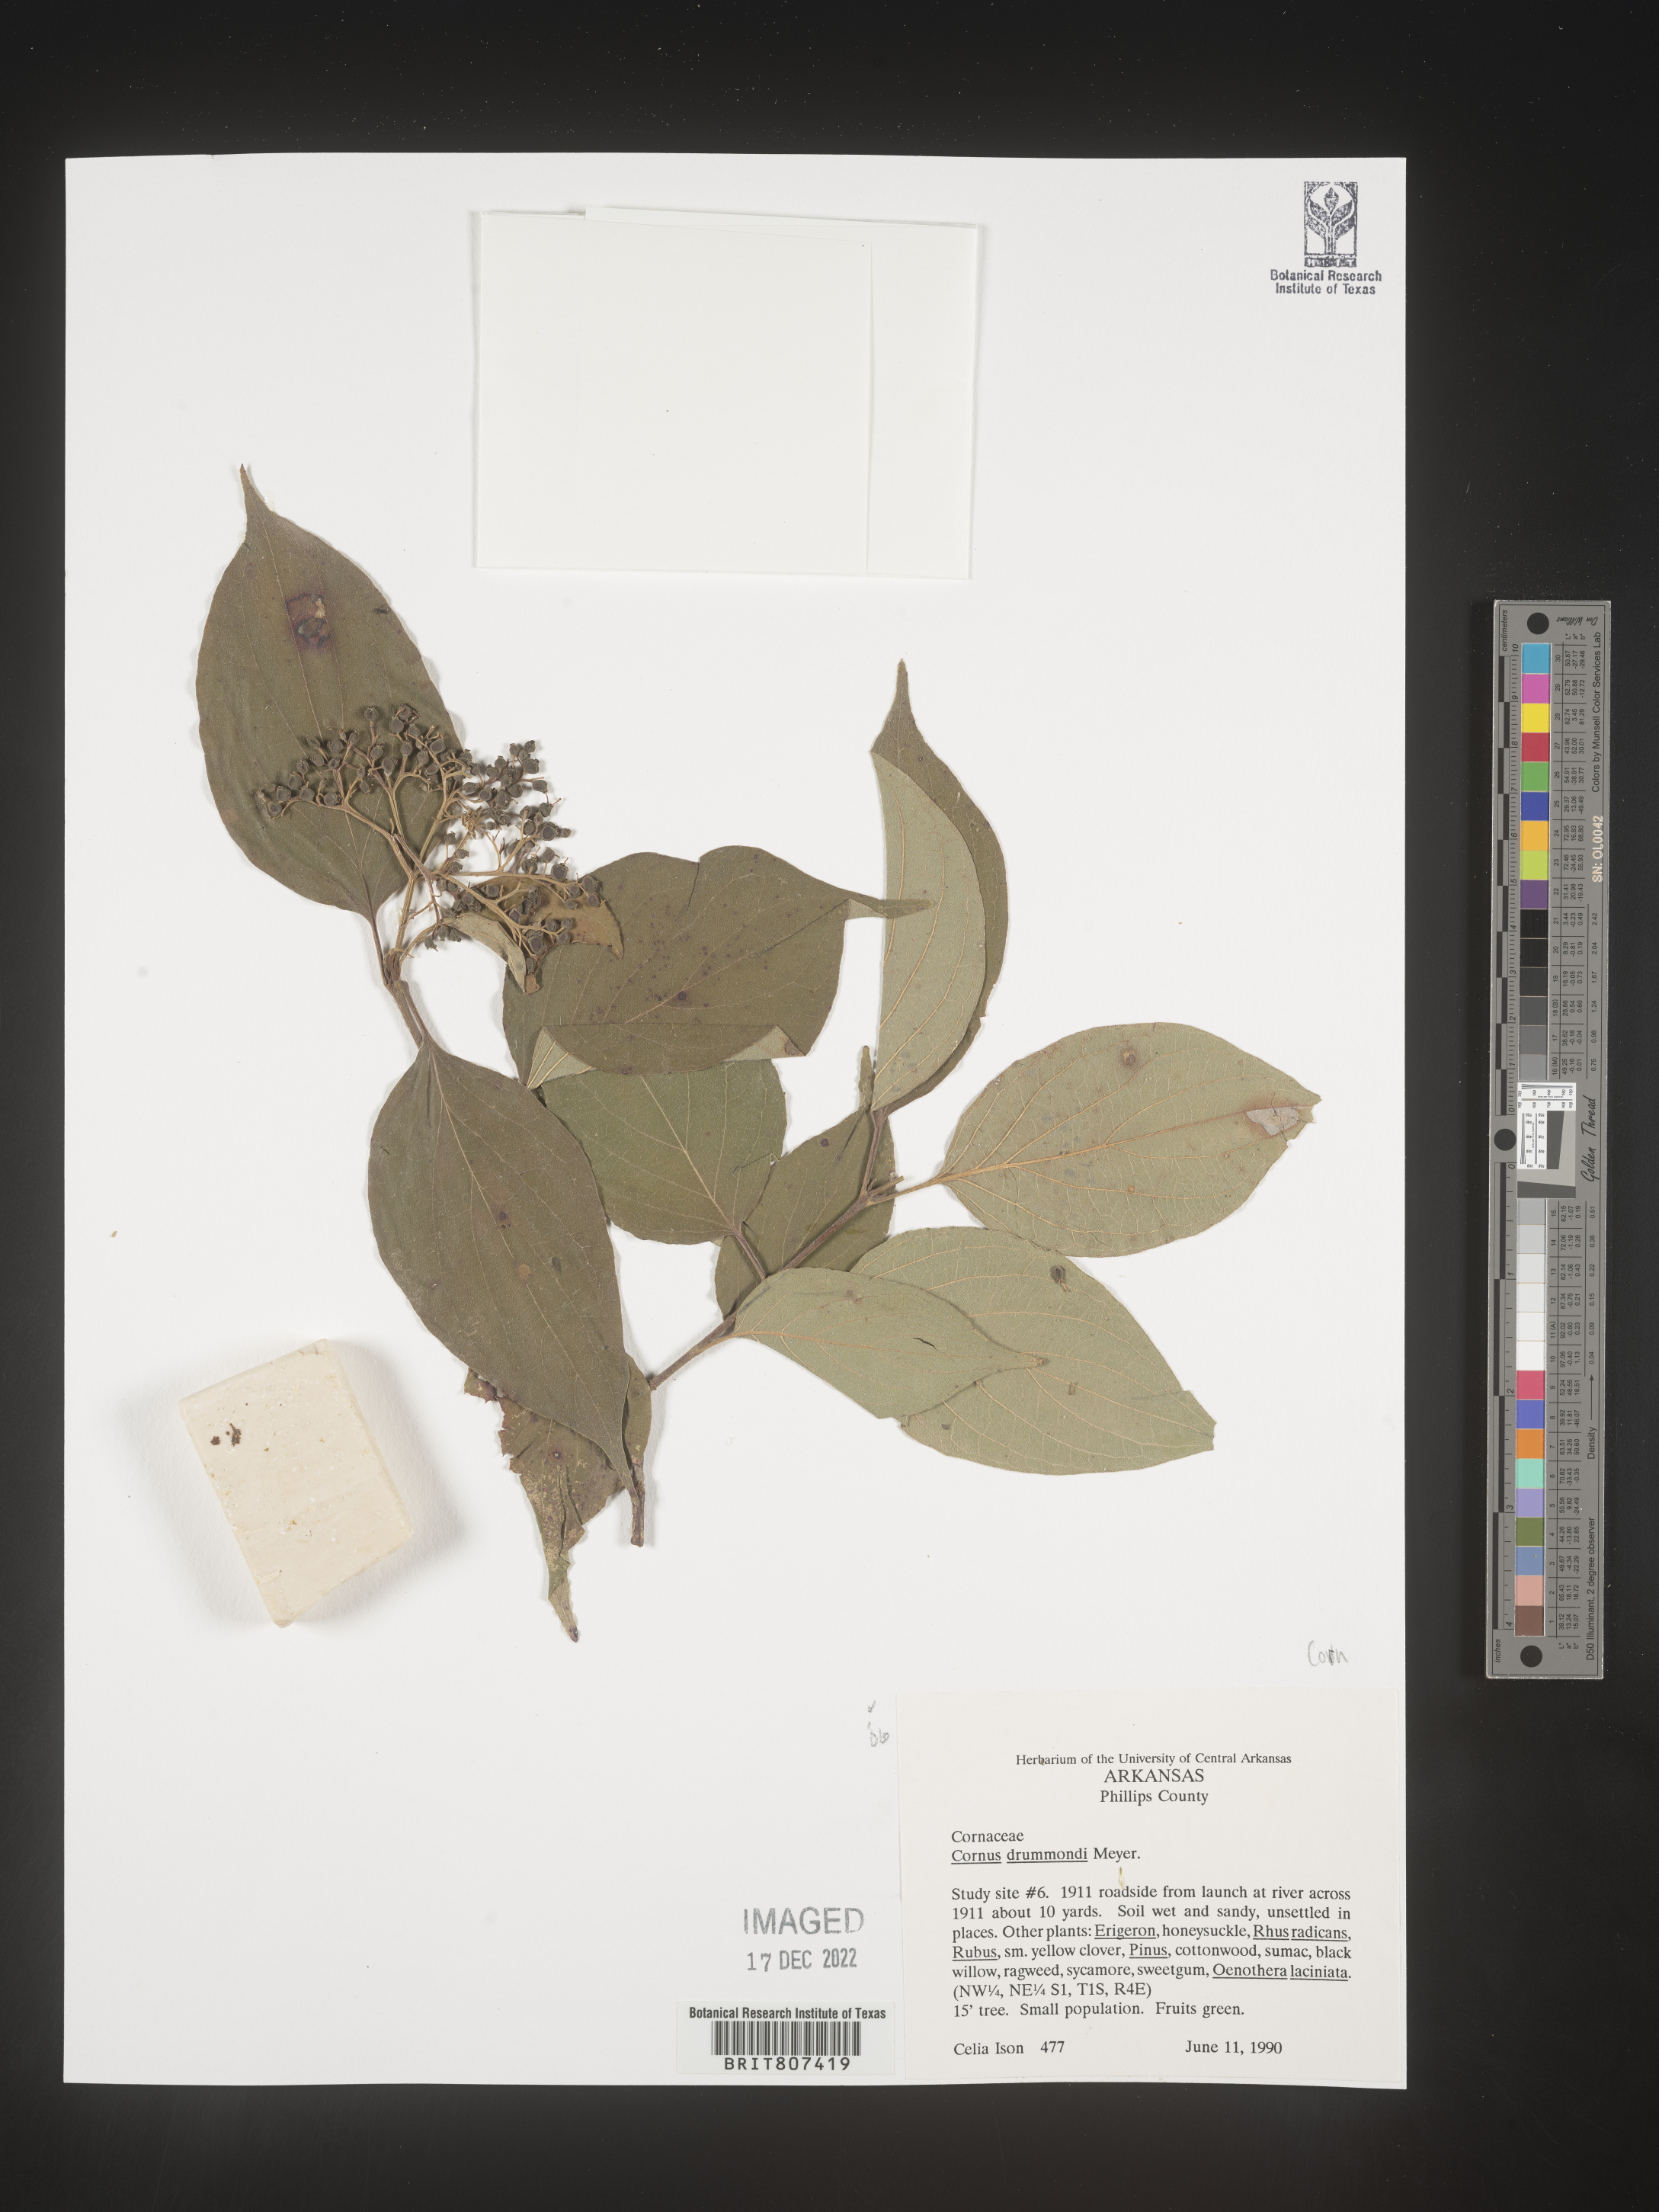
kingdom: Plantae
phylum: Tracheophyta
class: Magnoliopsida
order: Cornales
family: Cornaceae
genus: Cornus
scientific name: Cornus drummondii
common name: Rough-leaf dogwood
